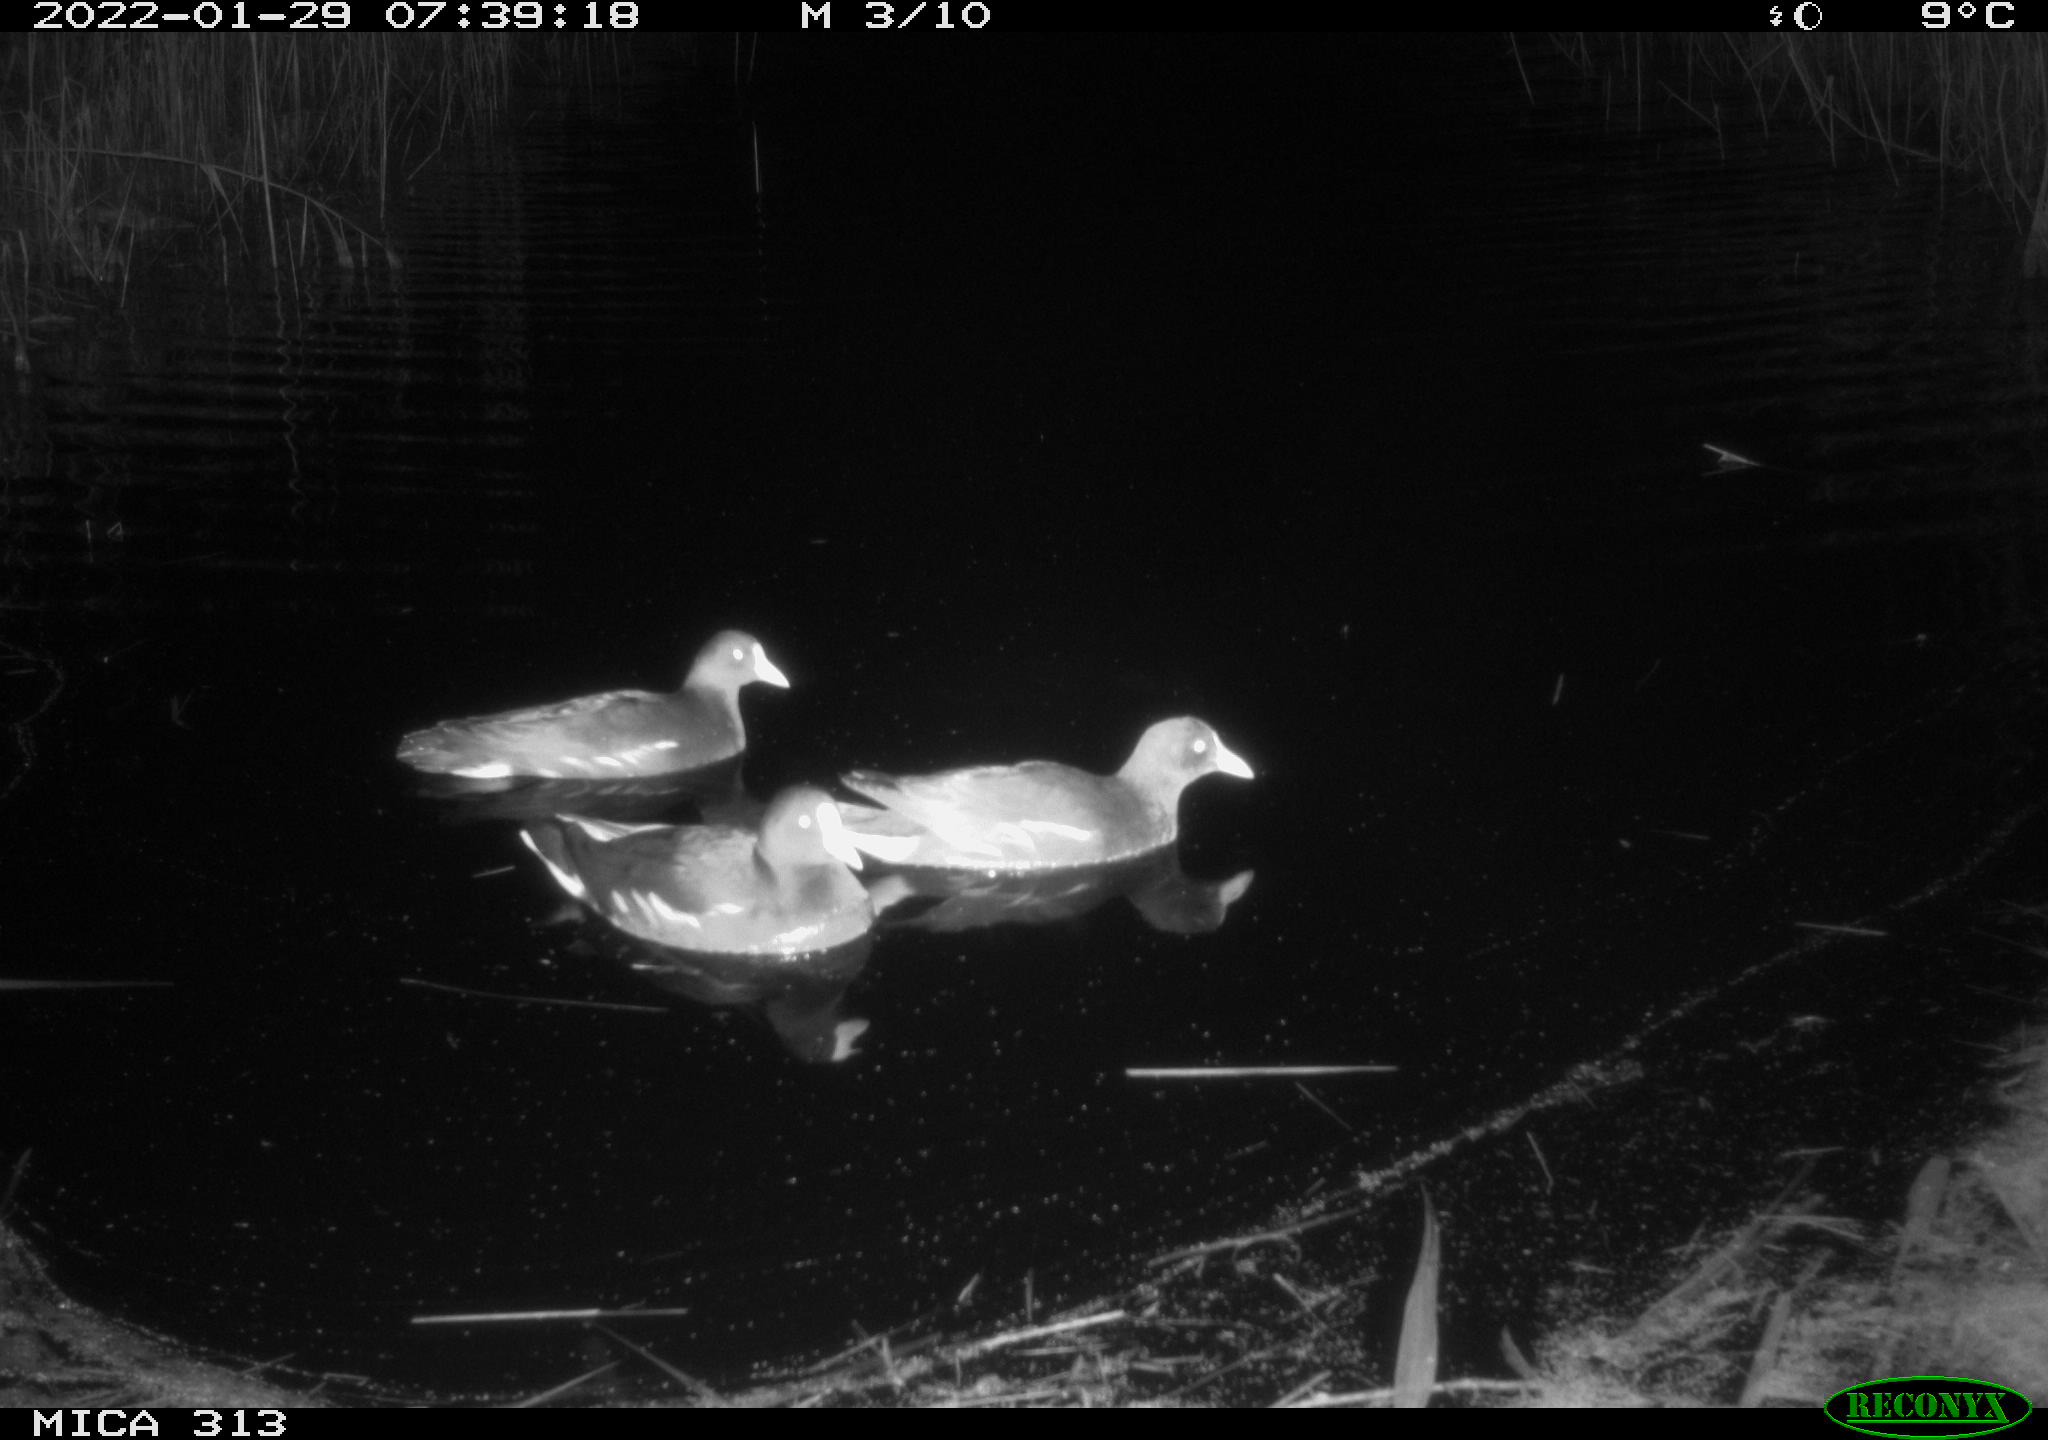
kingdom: Animalia
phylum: Chordata
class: Aves
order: Gruiformes
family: Rallidae
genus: Gallinula
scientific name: Gallinula chloropus
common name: Common moorhen
